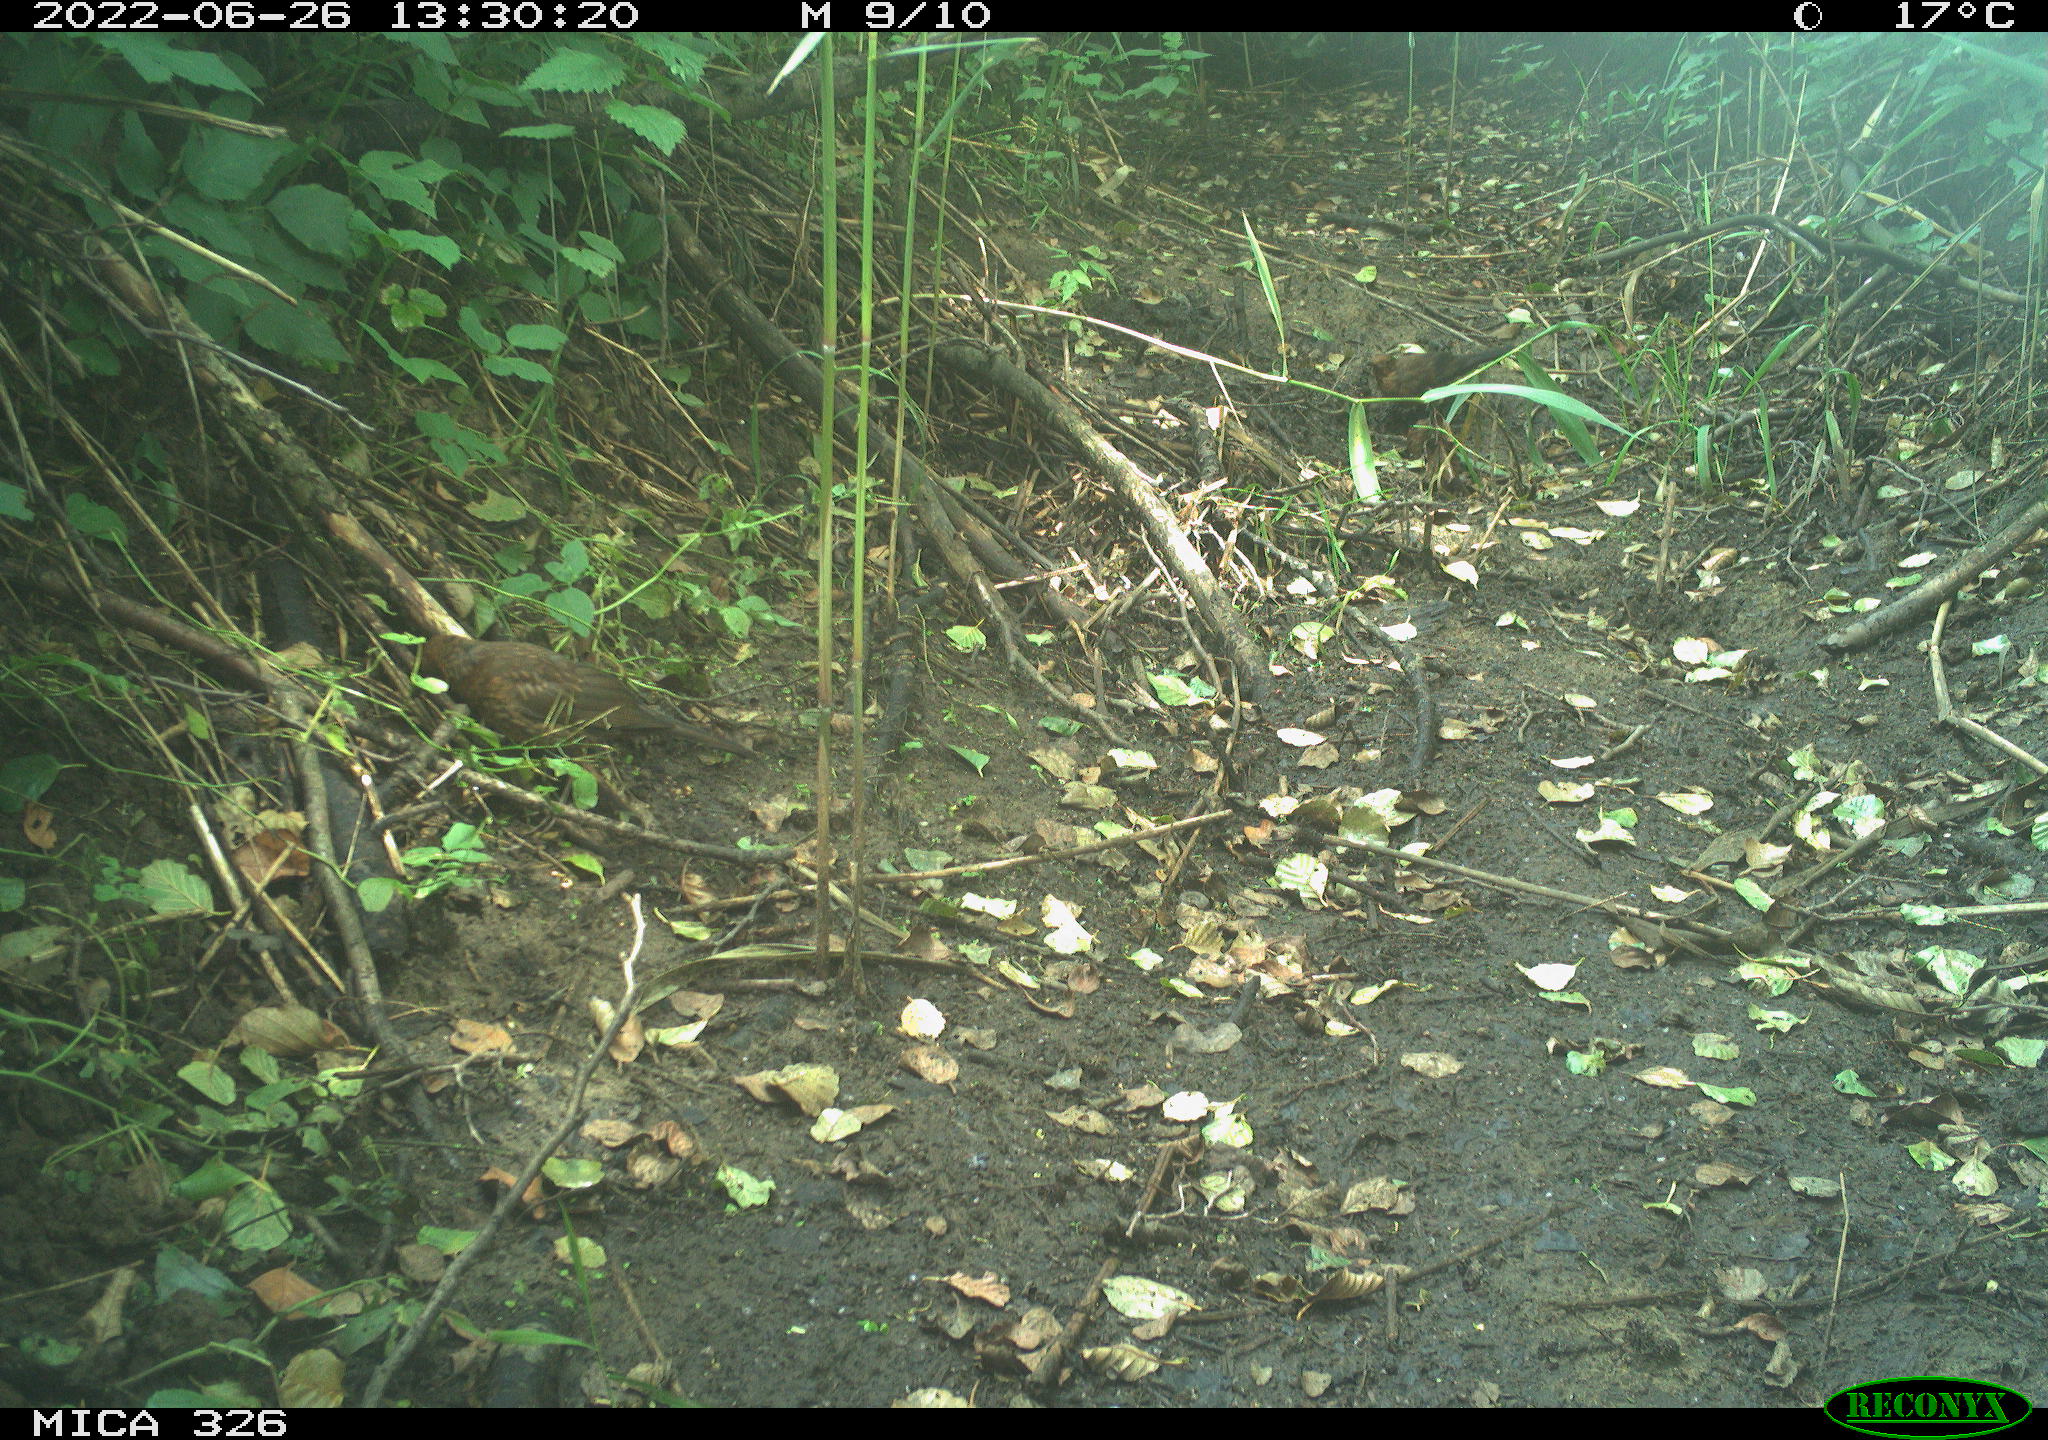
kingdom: Animalia
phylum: Chordata
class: Aves
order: Passeriformes
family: Turdidae
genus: Turdus
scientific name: Turdus merula
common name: Common blackbird
